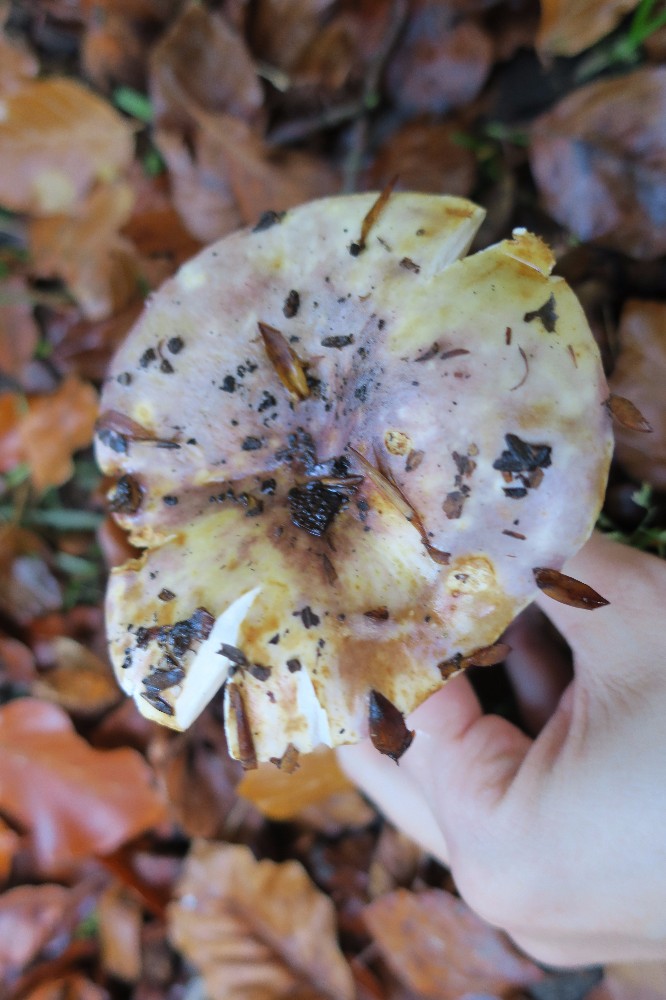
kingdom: Fungi
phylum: Basidiomycota
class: Agaricomycetes
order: Russulales
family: Russulaceae
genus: Russula
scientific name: Russula viscida
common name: knippe-skørhat
